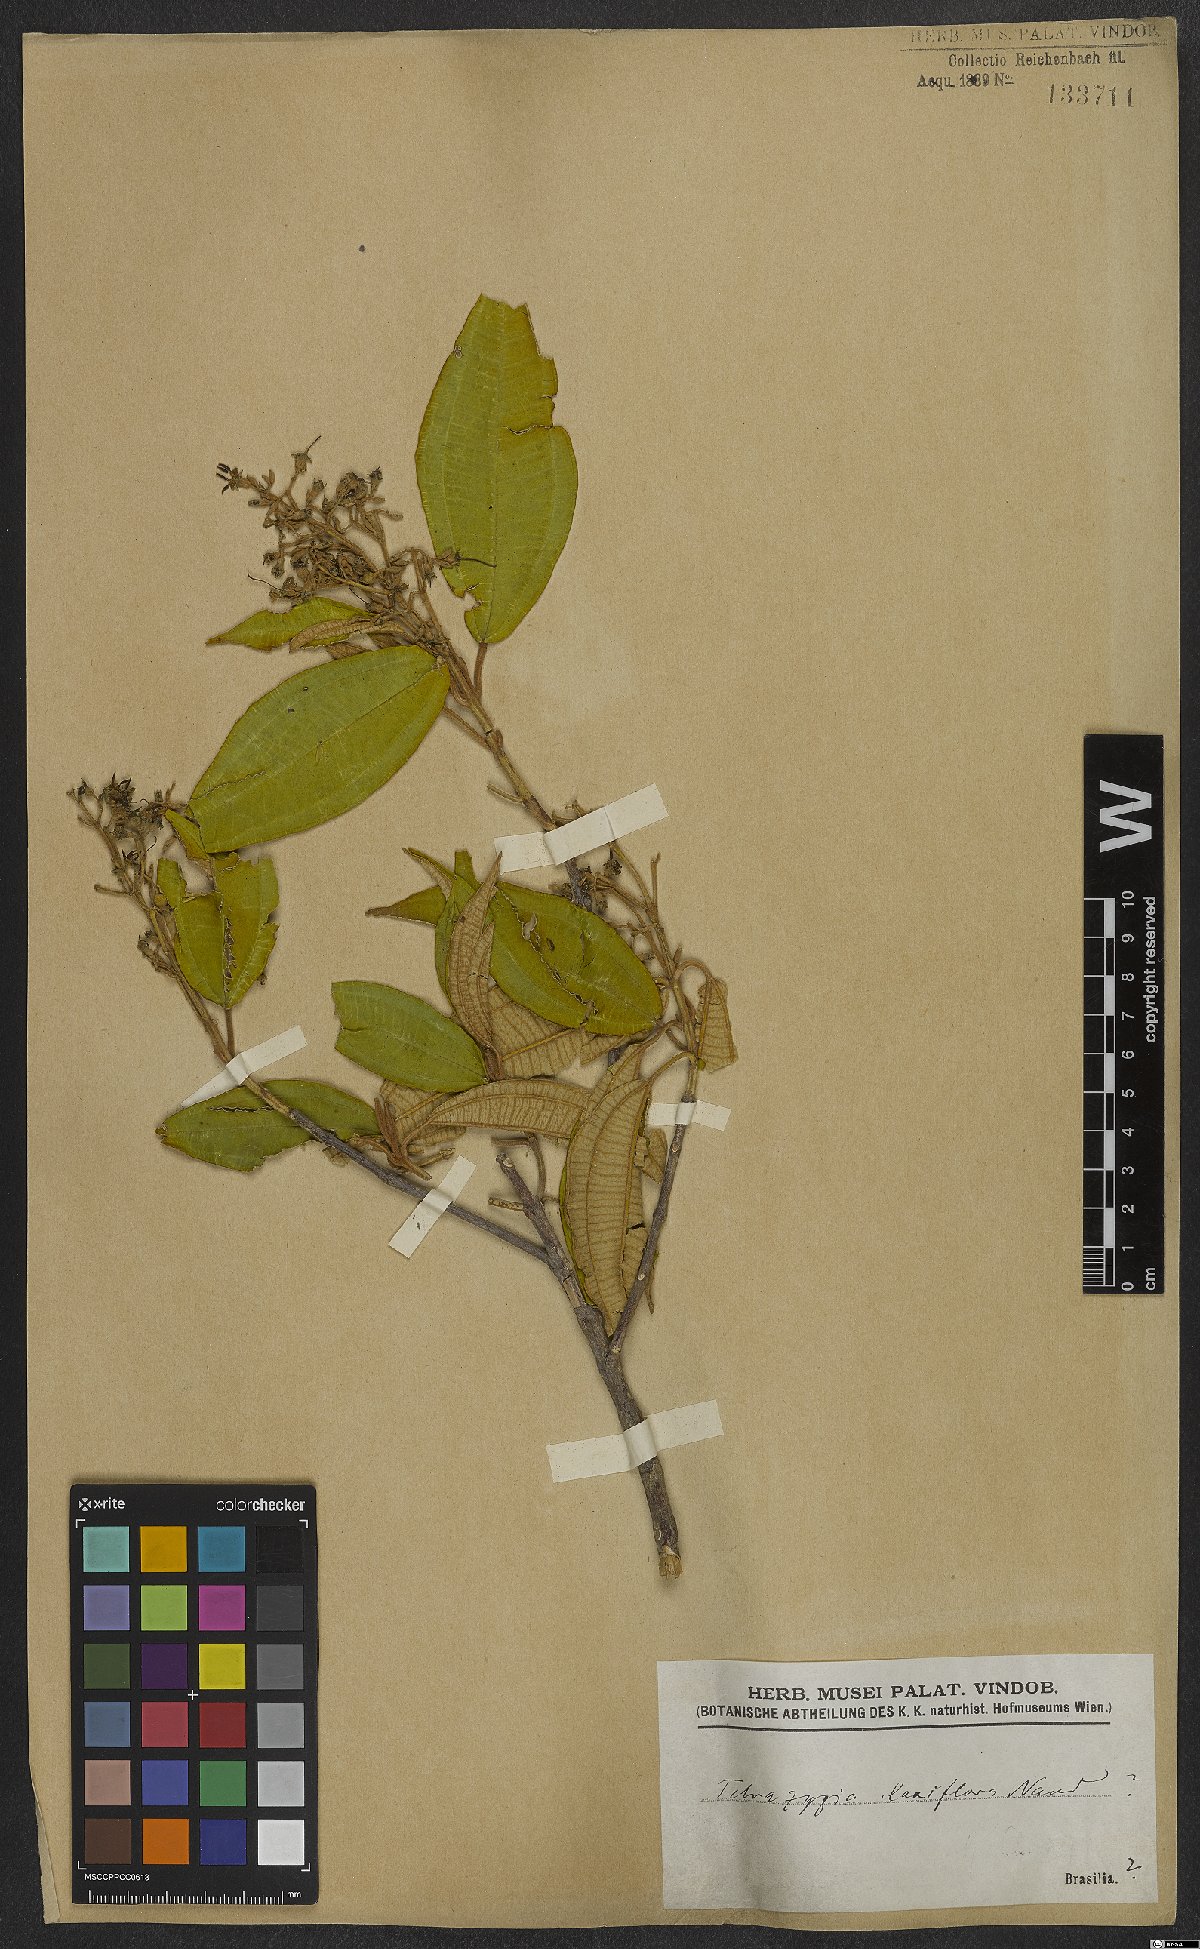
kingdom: Plantae
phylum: Tracheophyta
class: Magnoliopsida
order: Myrtales
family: Melastomataceae
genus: Miconia
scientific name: Miconia rangeliana
